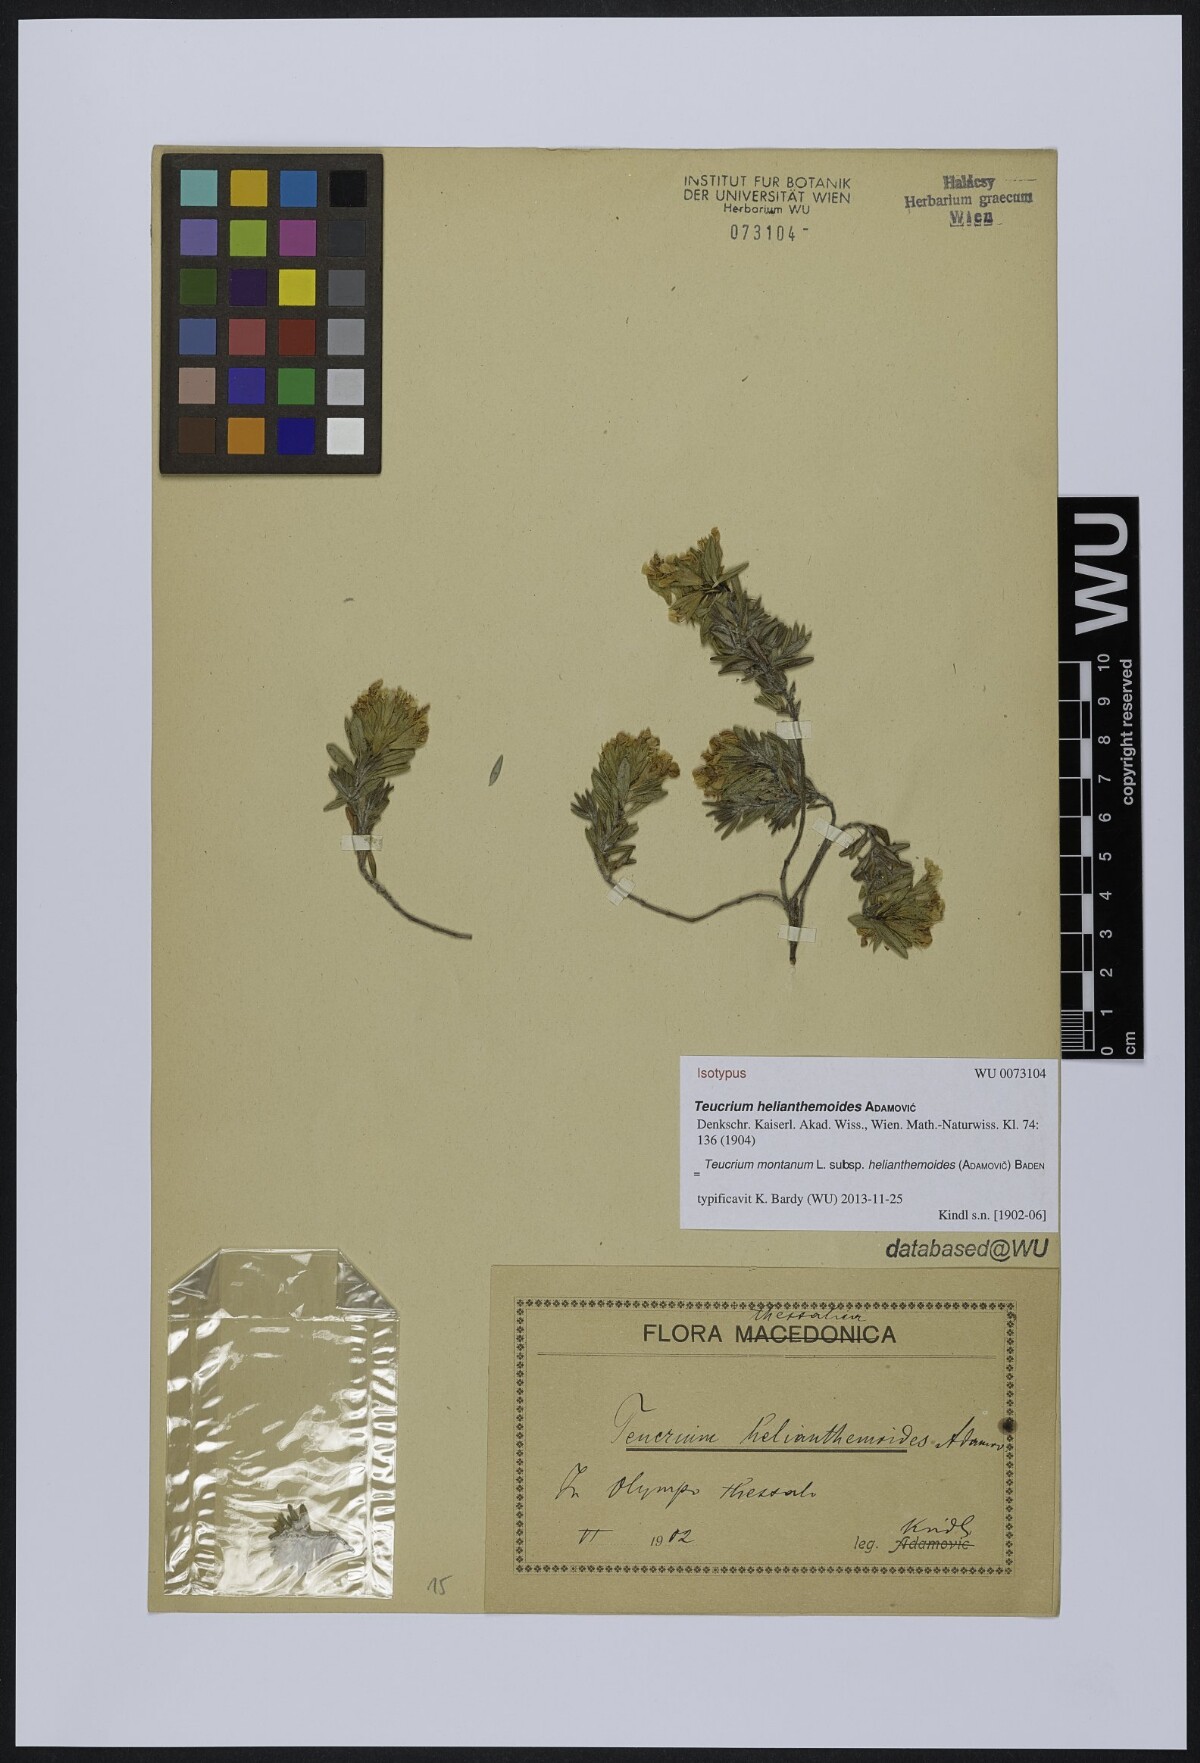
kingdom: Plantae
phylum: Tracheophyta
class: Magnoliopsida
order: Lamiales
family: Lamiaceae
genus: Teucrium
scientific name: Teucrium montanum
